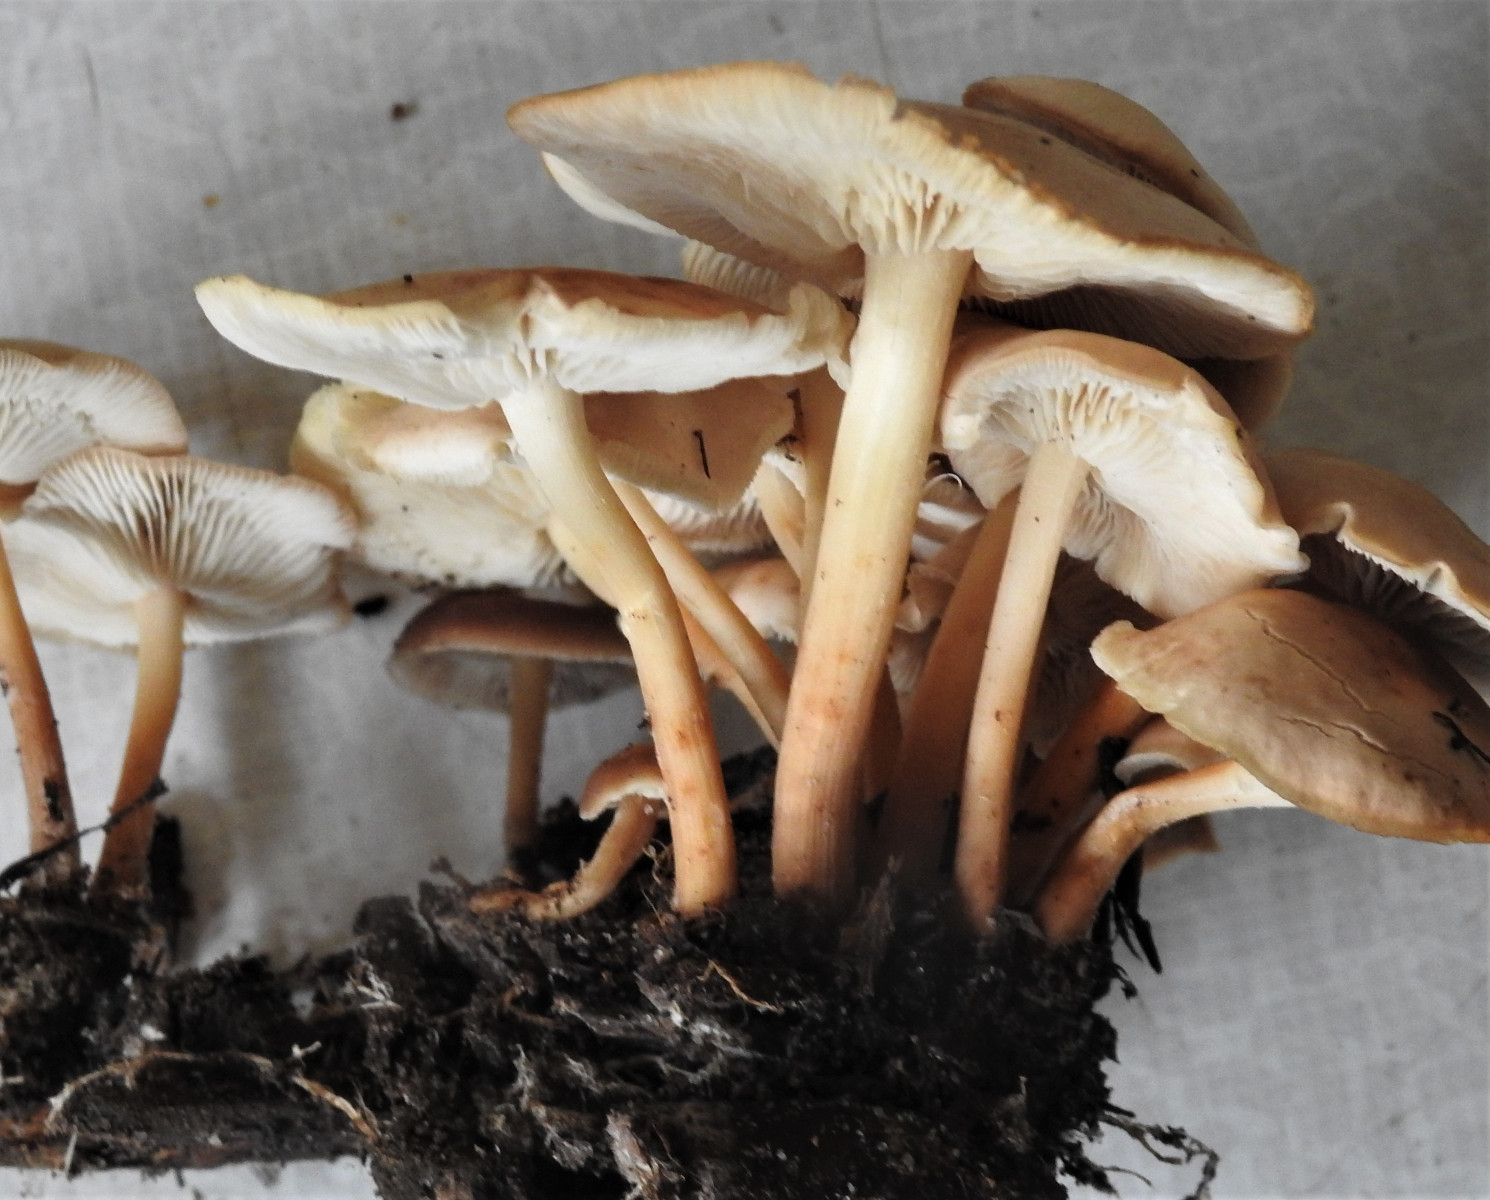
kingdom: Fungi
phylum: Basidiomycota
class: Agaricomycetes
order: Agaricales
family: Omphalotaceae
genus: Gymnopus
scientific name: Gymnopus
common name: fladhat
